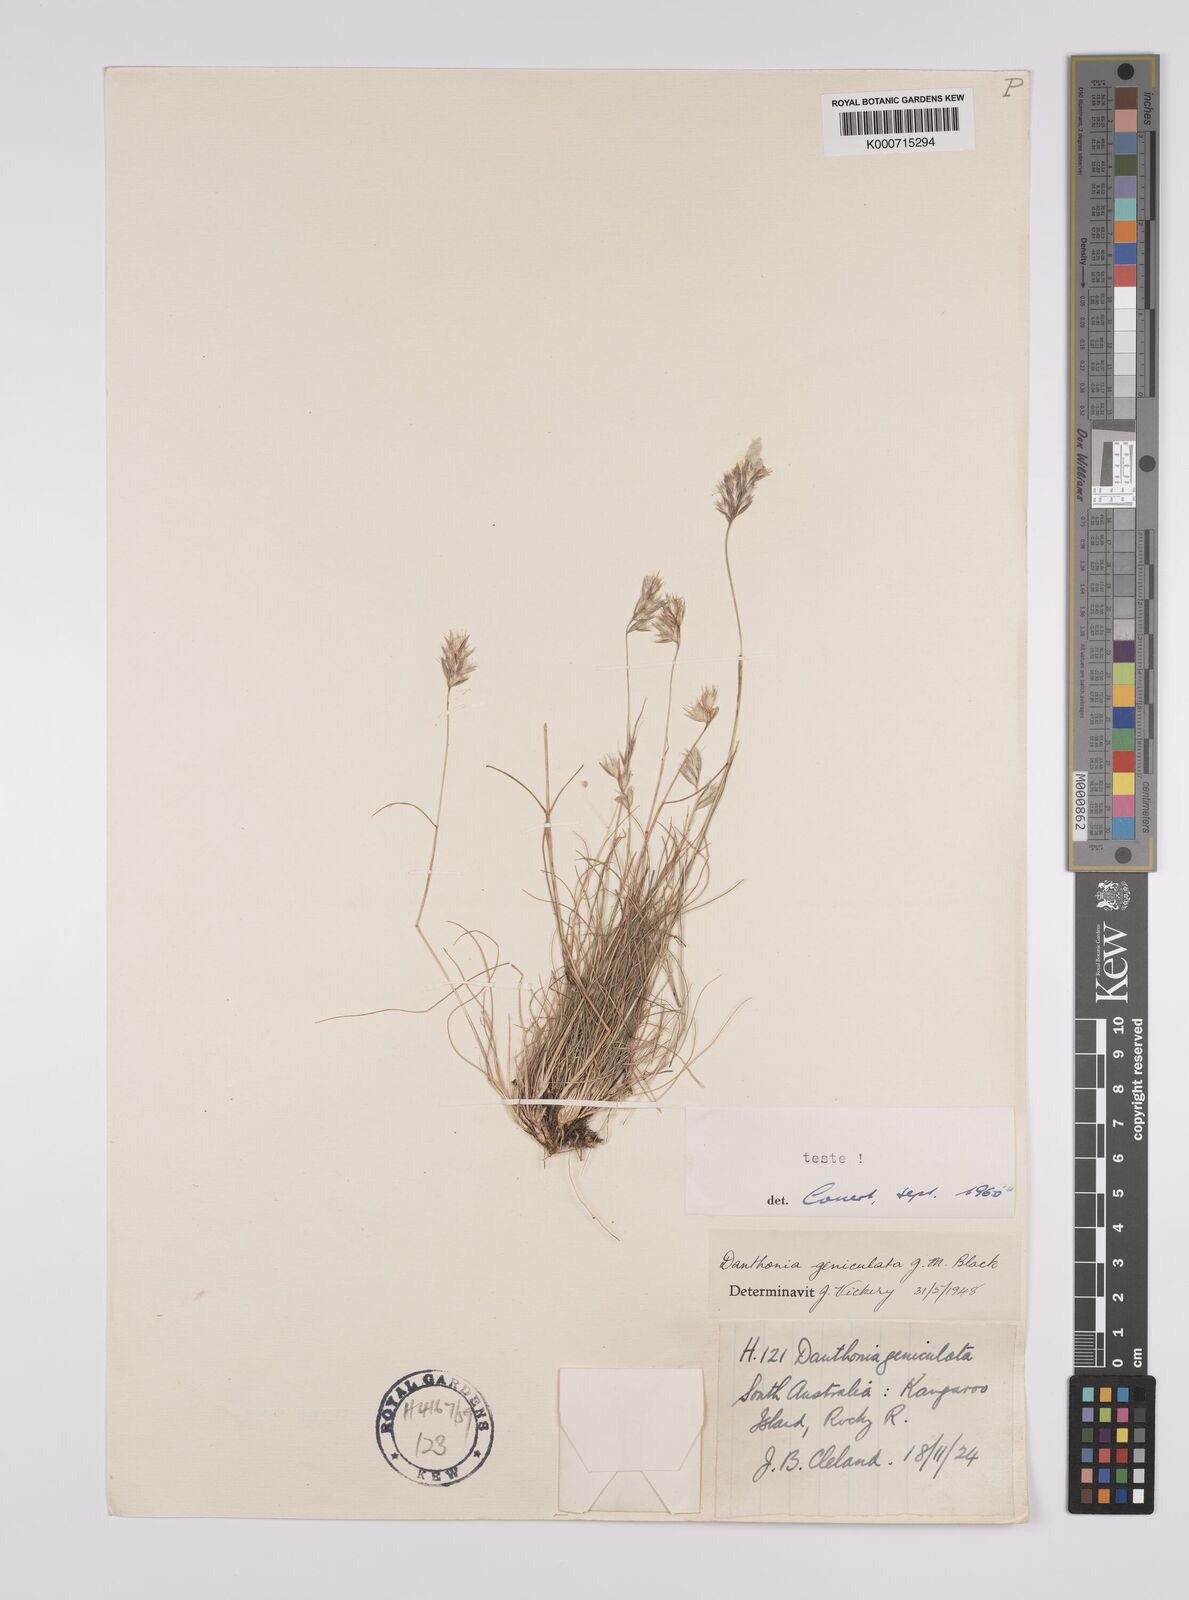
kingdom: Plantae
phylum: Tracheophyta
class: Liliopsida
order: Poales
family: Poaceae
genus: Rytidosperma
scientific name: Rytidosperma geniculatum
